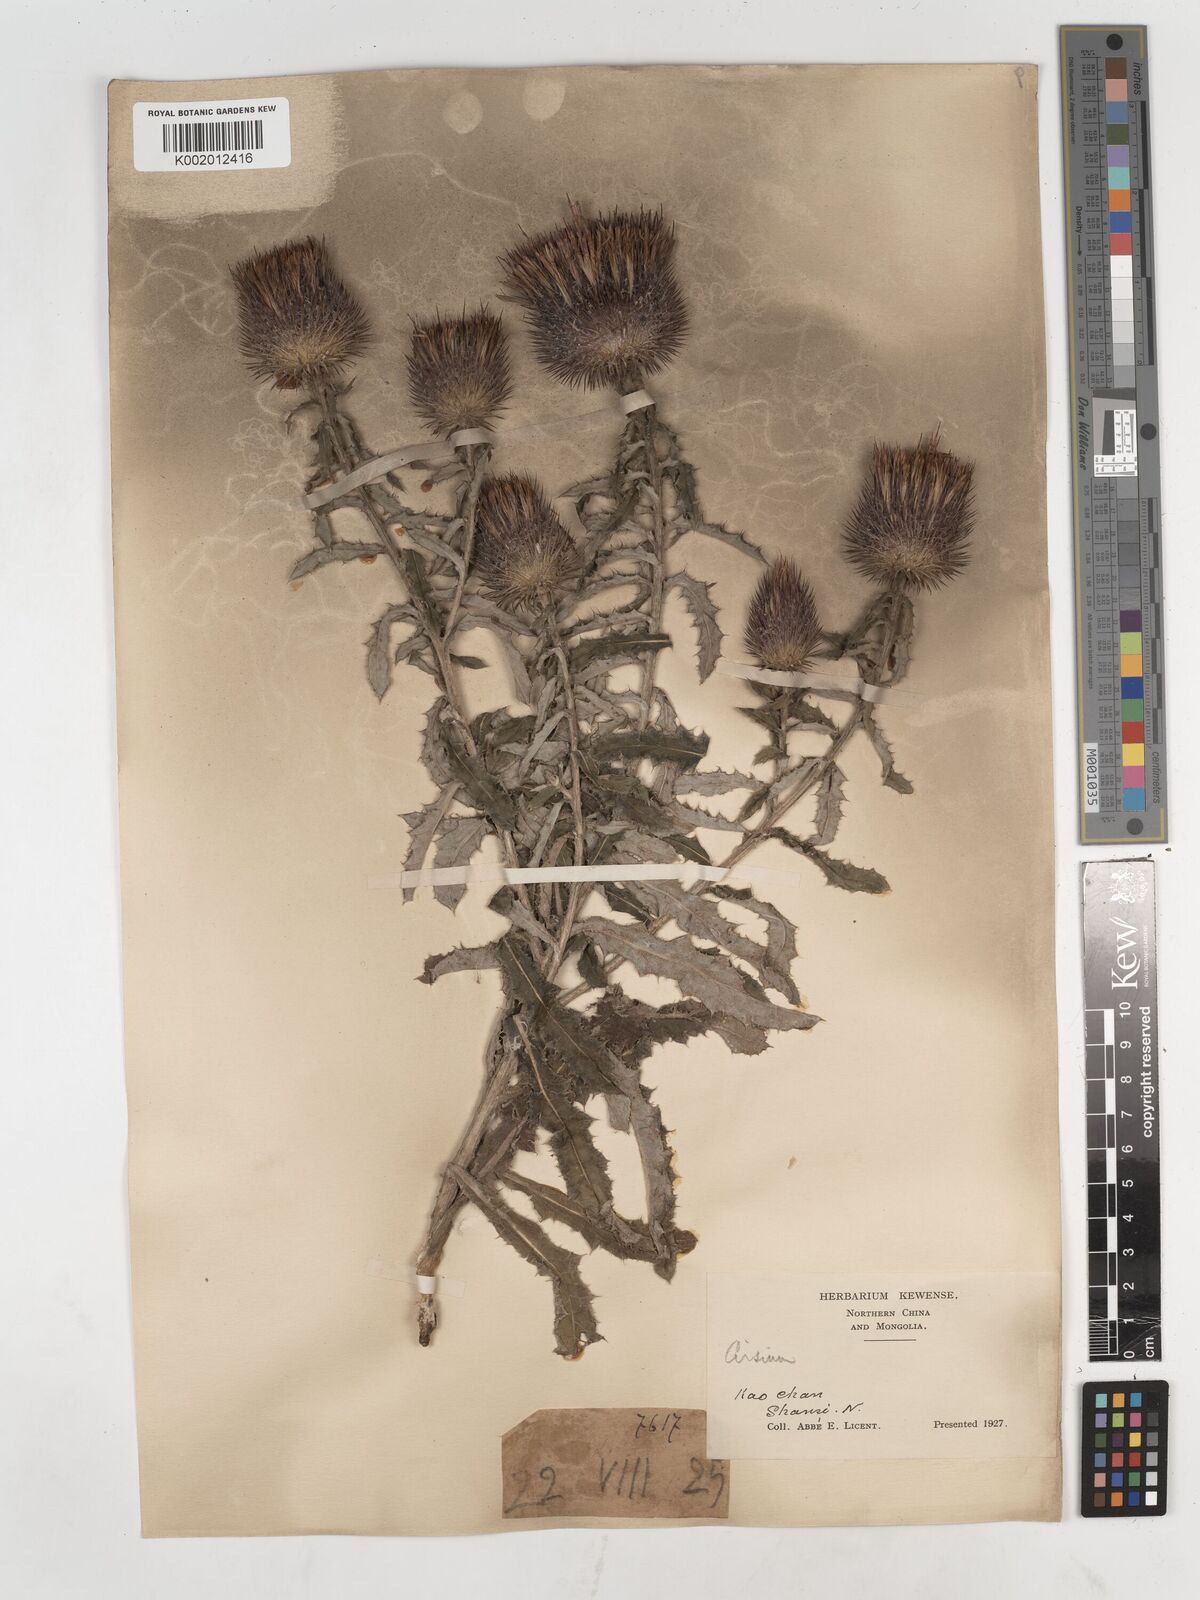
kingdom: Plantae
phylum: Tracheophyta
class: Magnoliopsida
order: Asterales
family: Asteraceae
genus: Cirsium
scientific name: Cirsium
